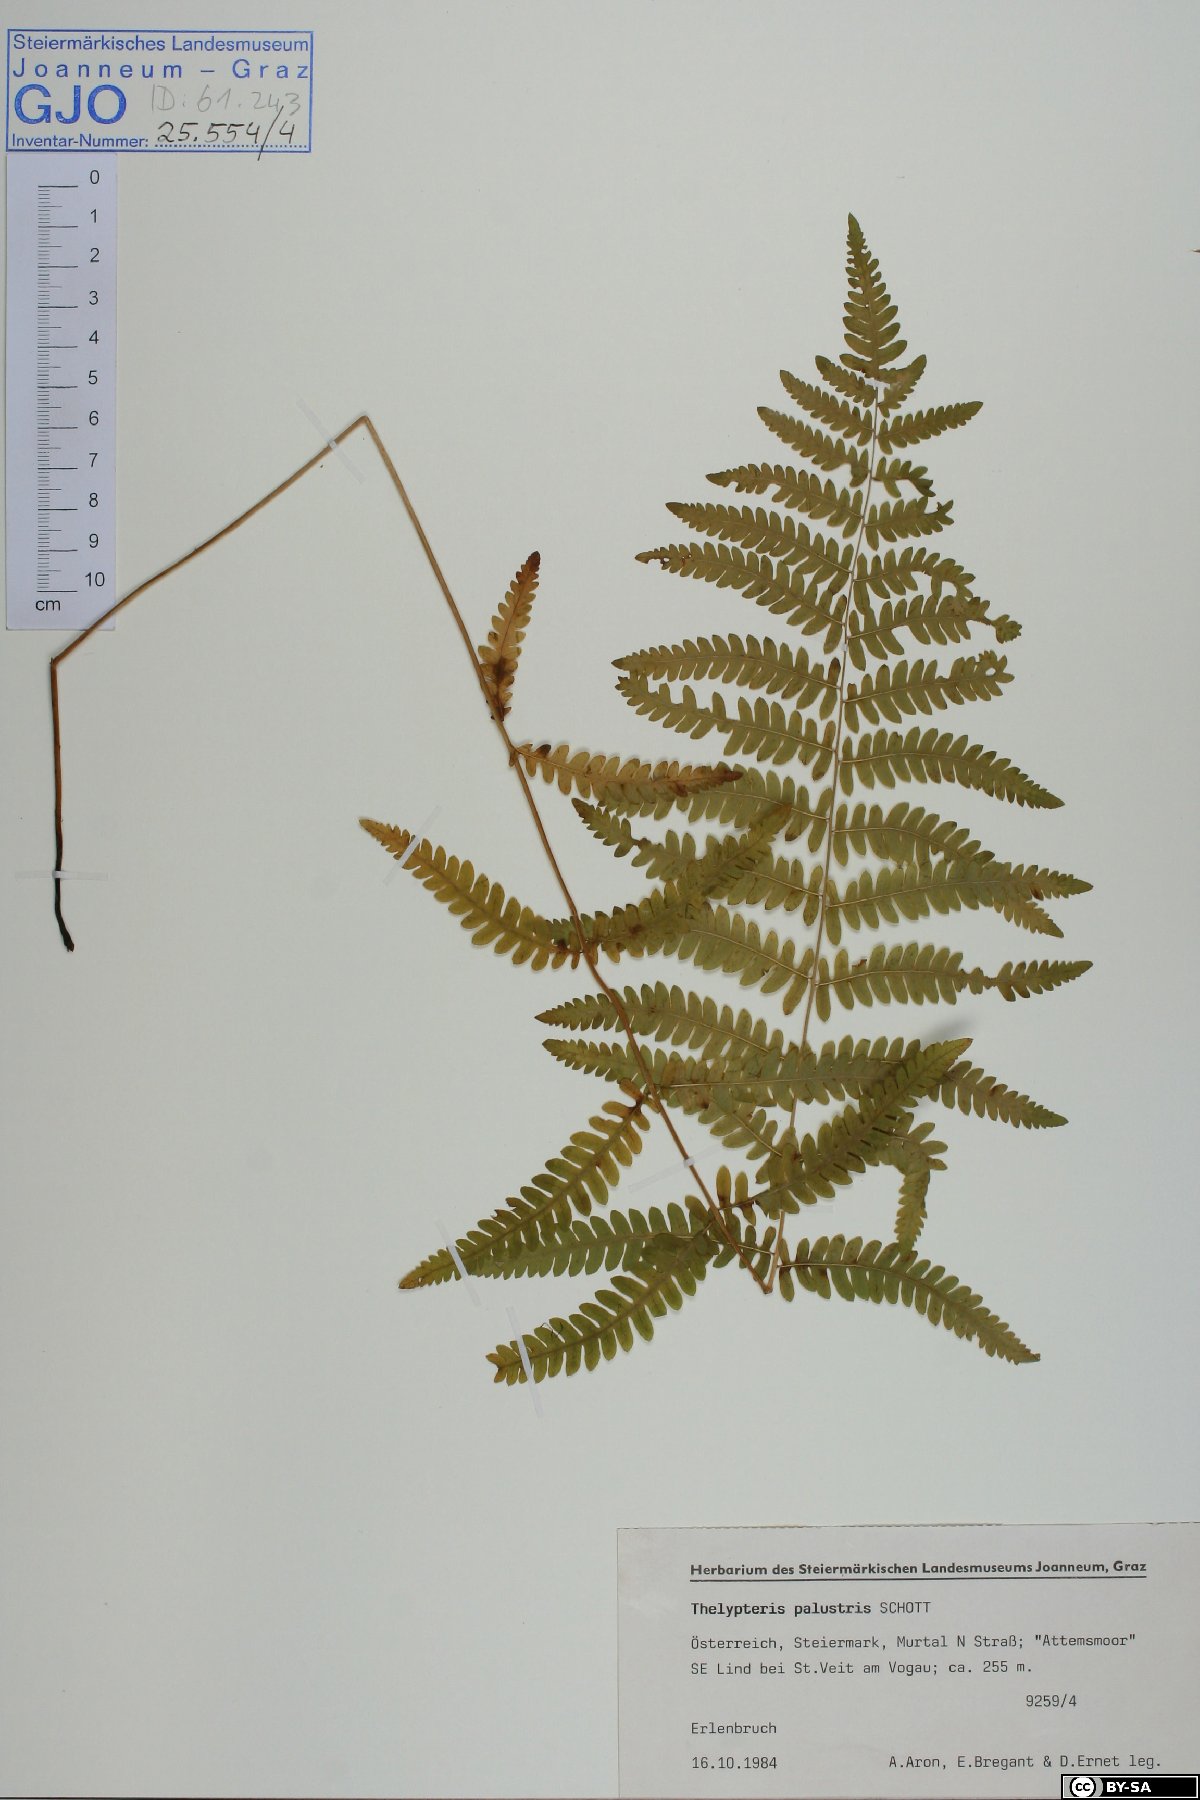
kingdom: Plantae
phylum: Tracheophyta
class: Polypodiopsida
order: Polypodiales
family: Thelypteridaceae
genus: Thelypteris
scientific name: Thelypteris palustris
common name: Marsh fern
